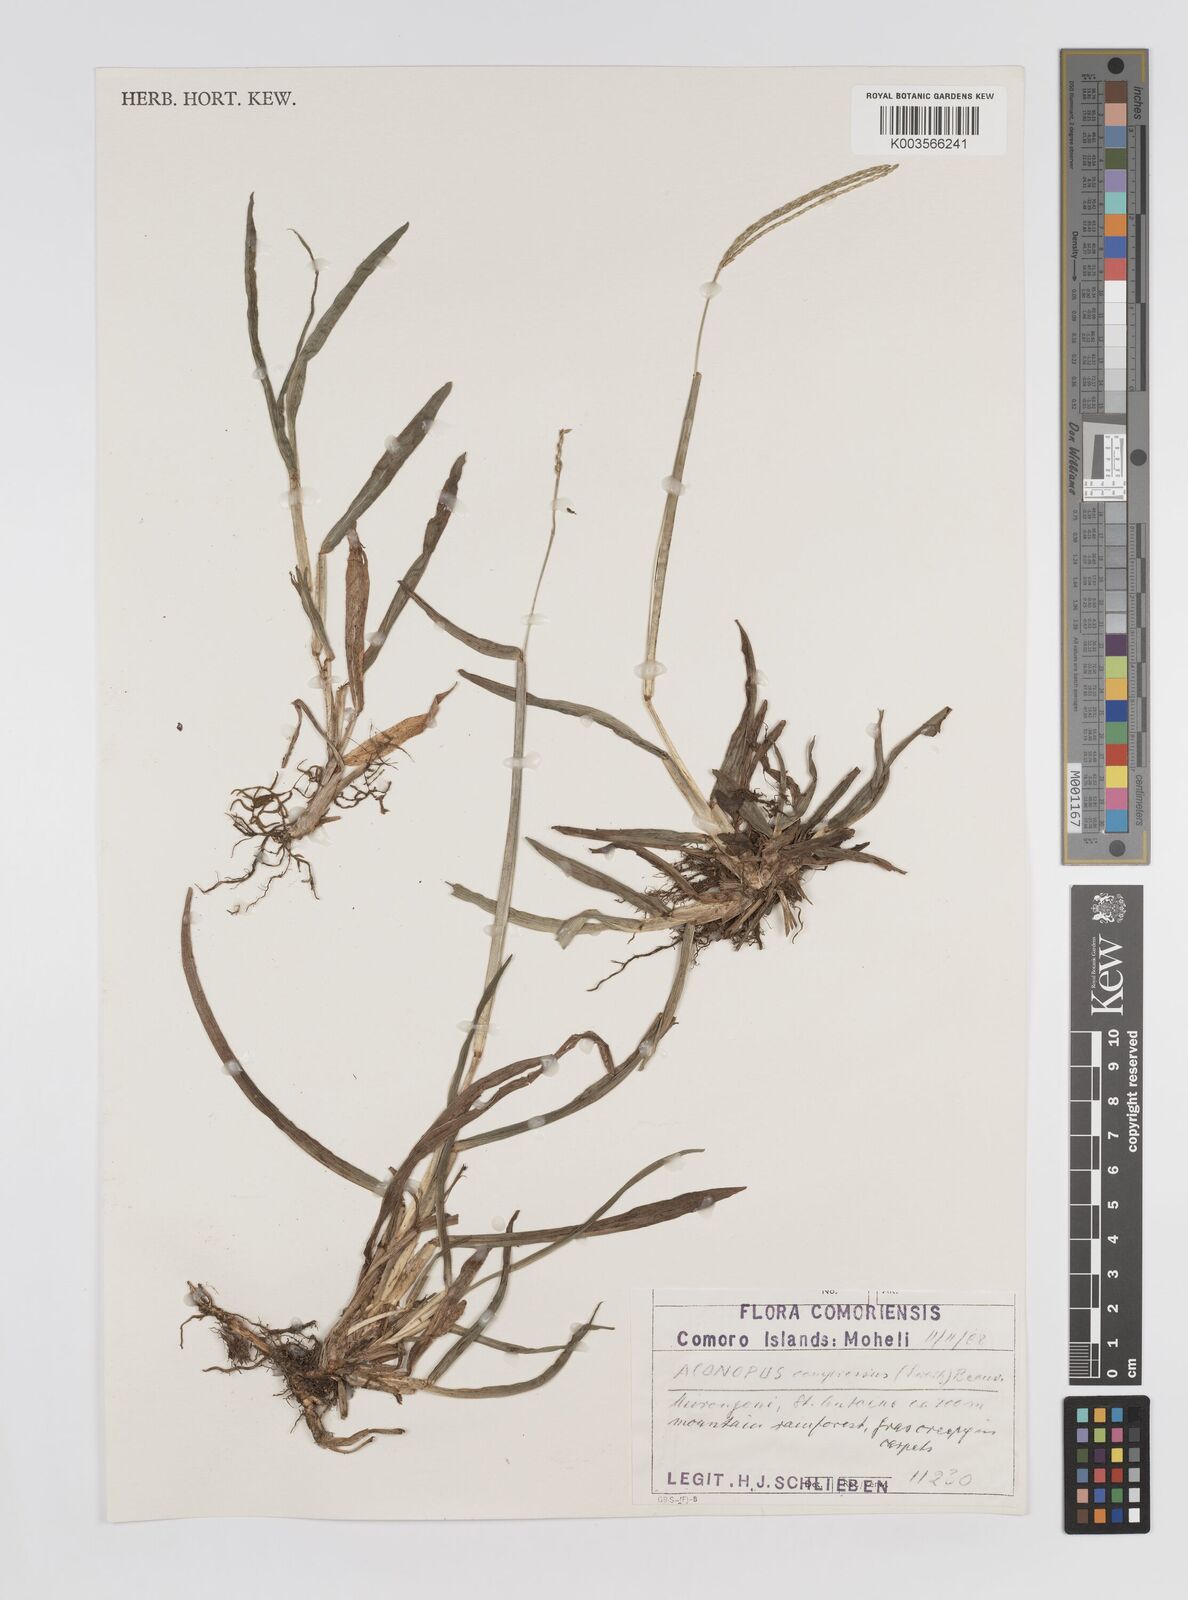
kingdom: Plantae
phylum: Tracheophyta
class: Liliopsida
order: Poales
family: Poaceae
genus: Axonopus
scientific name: Axonopus compressus
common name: American carpet grass
